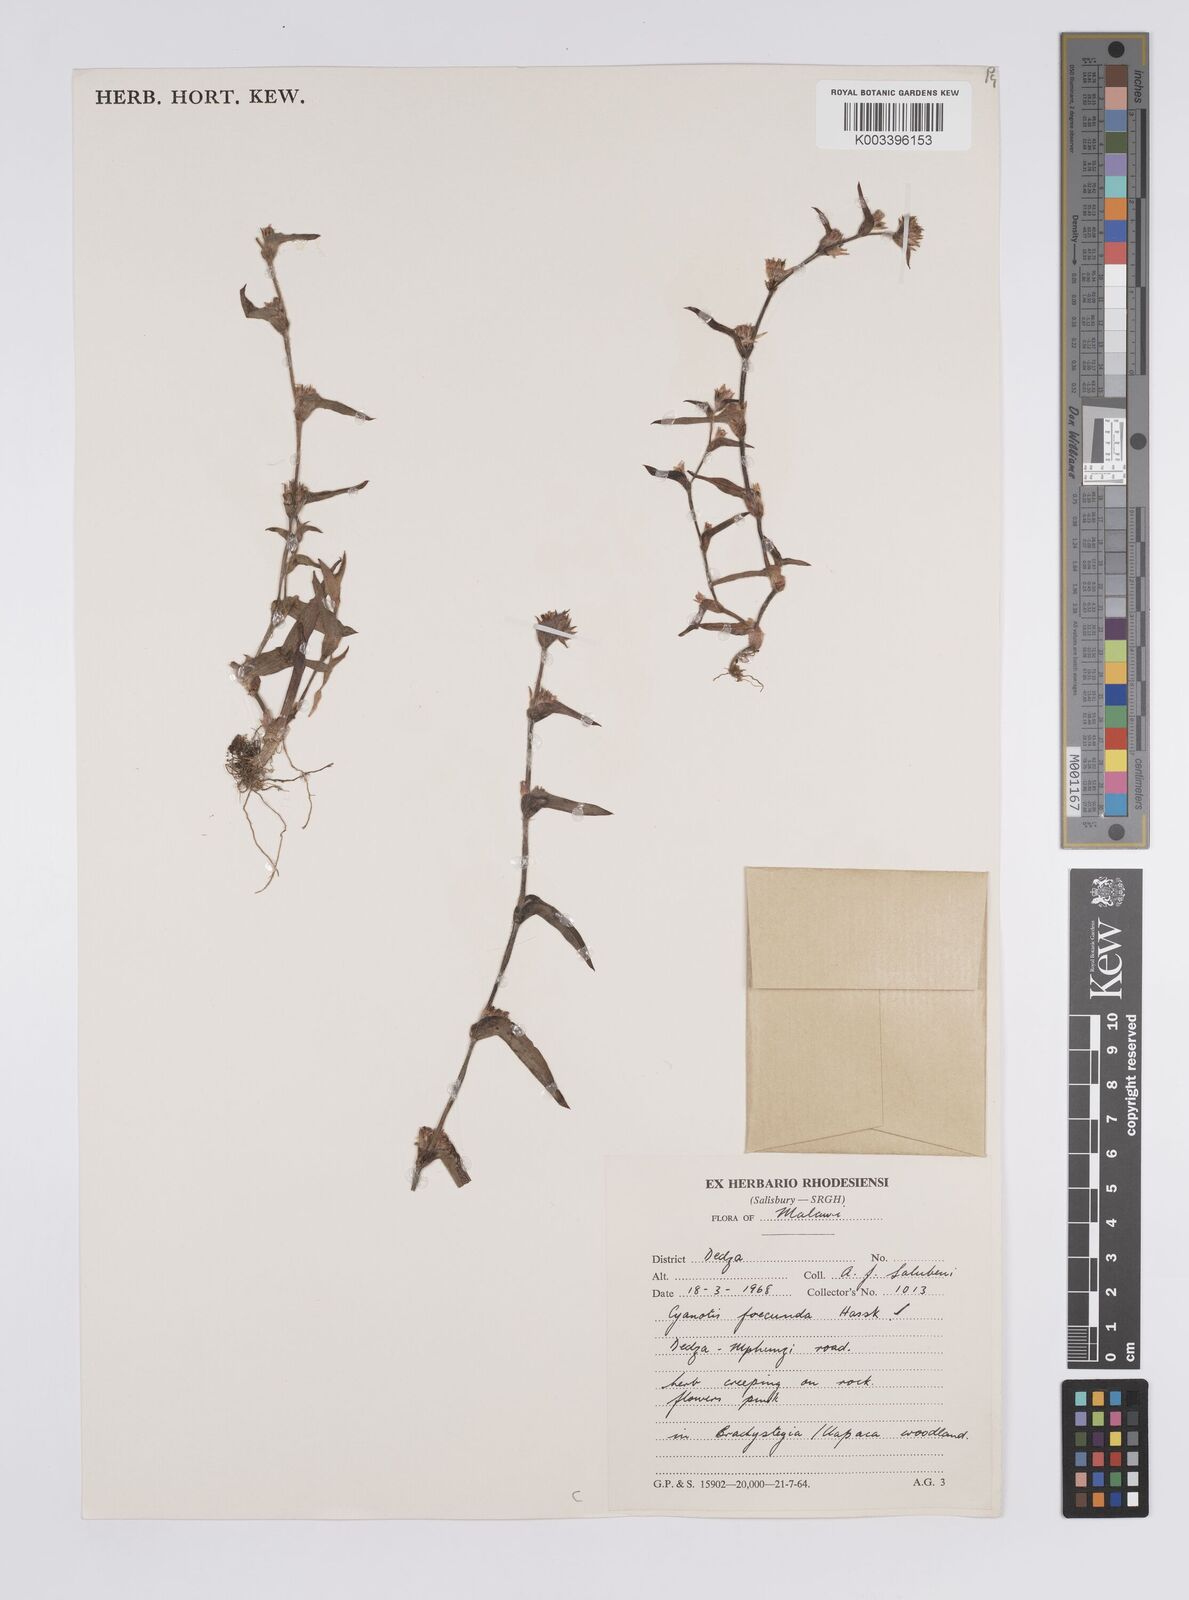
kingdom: Plantae
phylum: Tracheophyta
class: Liliopsida
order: Commelinales
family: Commelinaceae
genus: Cyanotis
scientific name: Cyanotis foecunda
